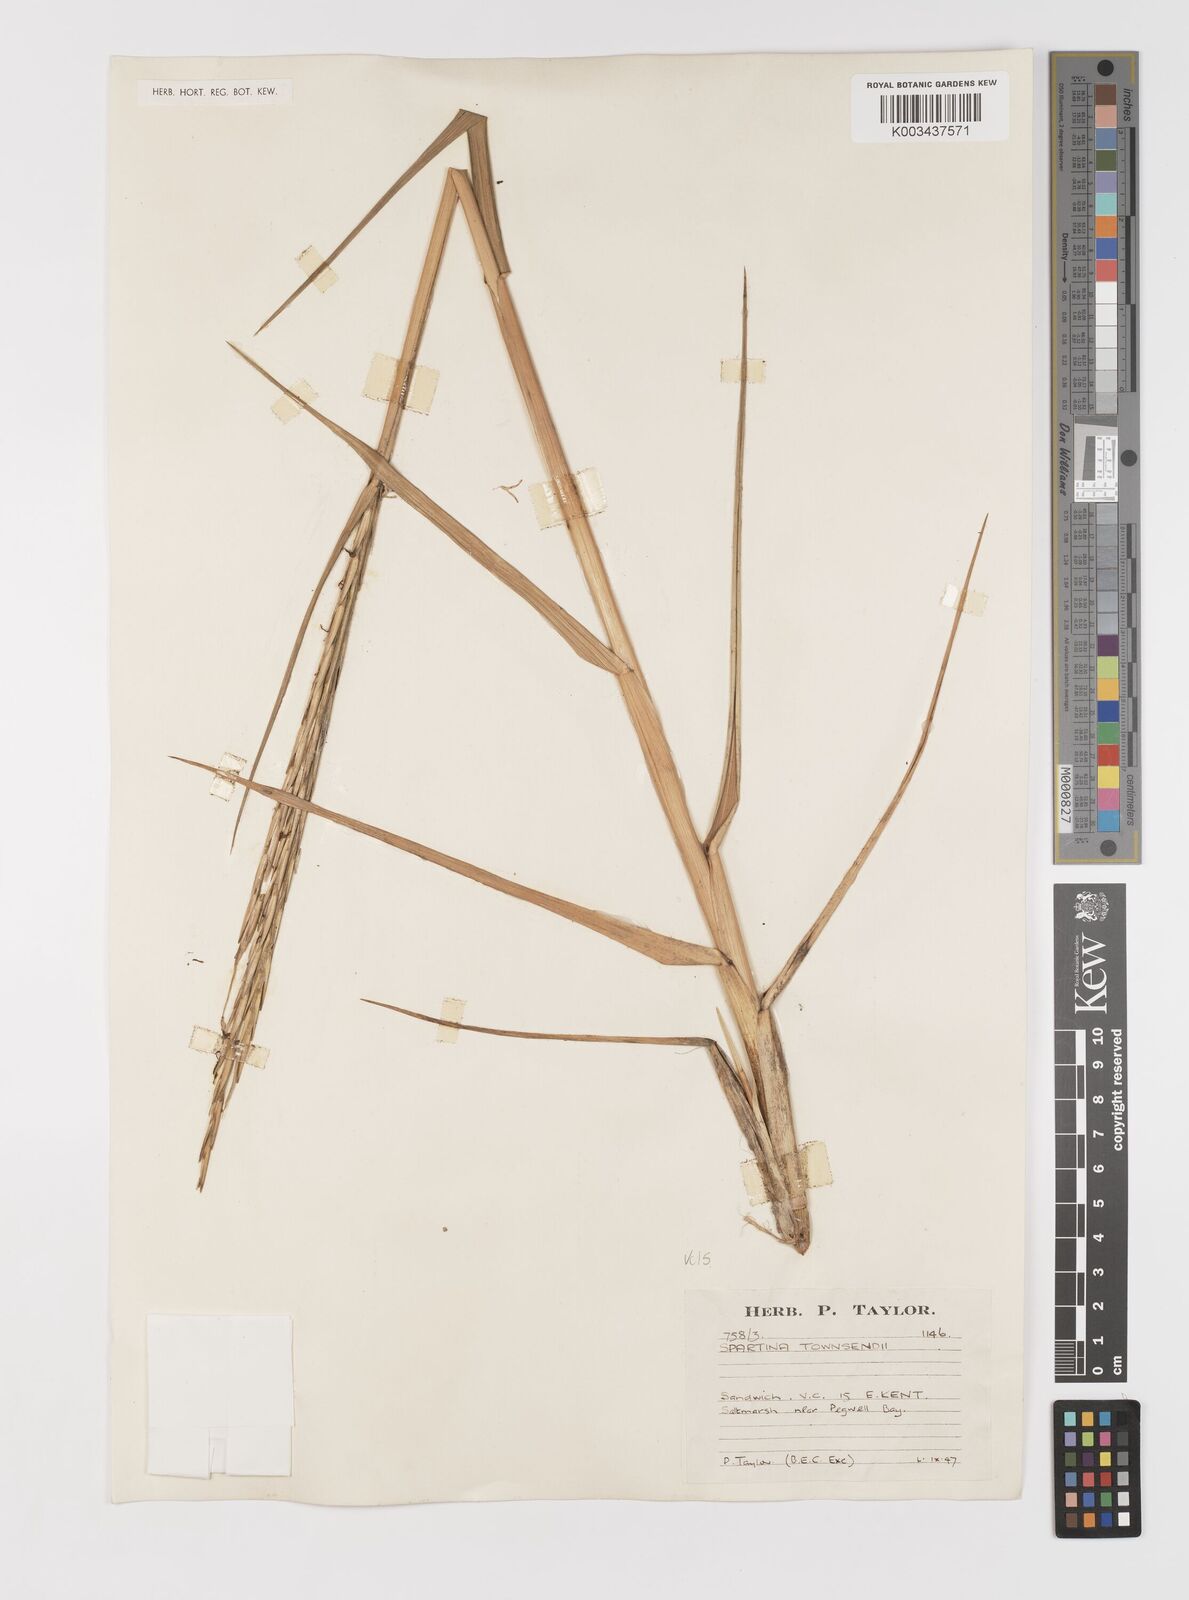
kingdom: Plantae
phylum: Tracheophyta
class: Liliopsida
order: Poales
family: Poaceae
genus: Sporobolus
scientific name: Sporobolus anglicus
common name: English cordgrass
